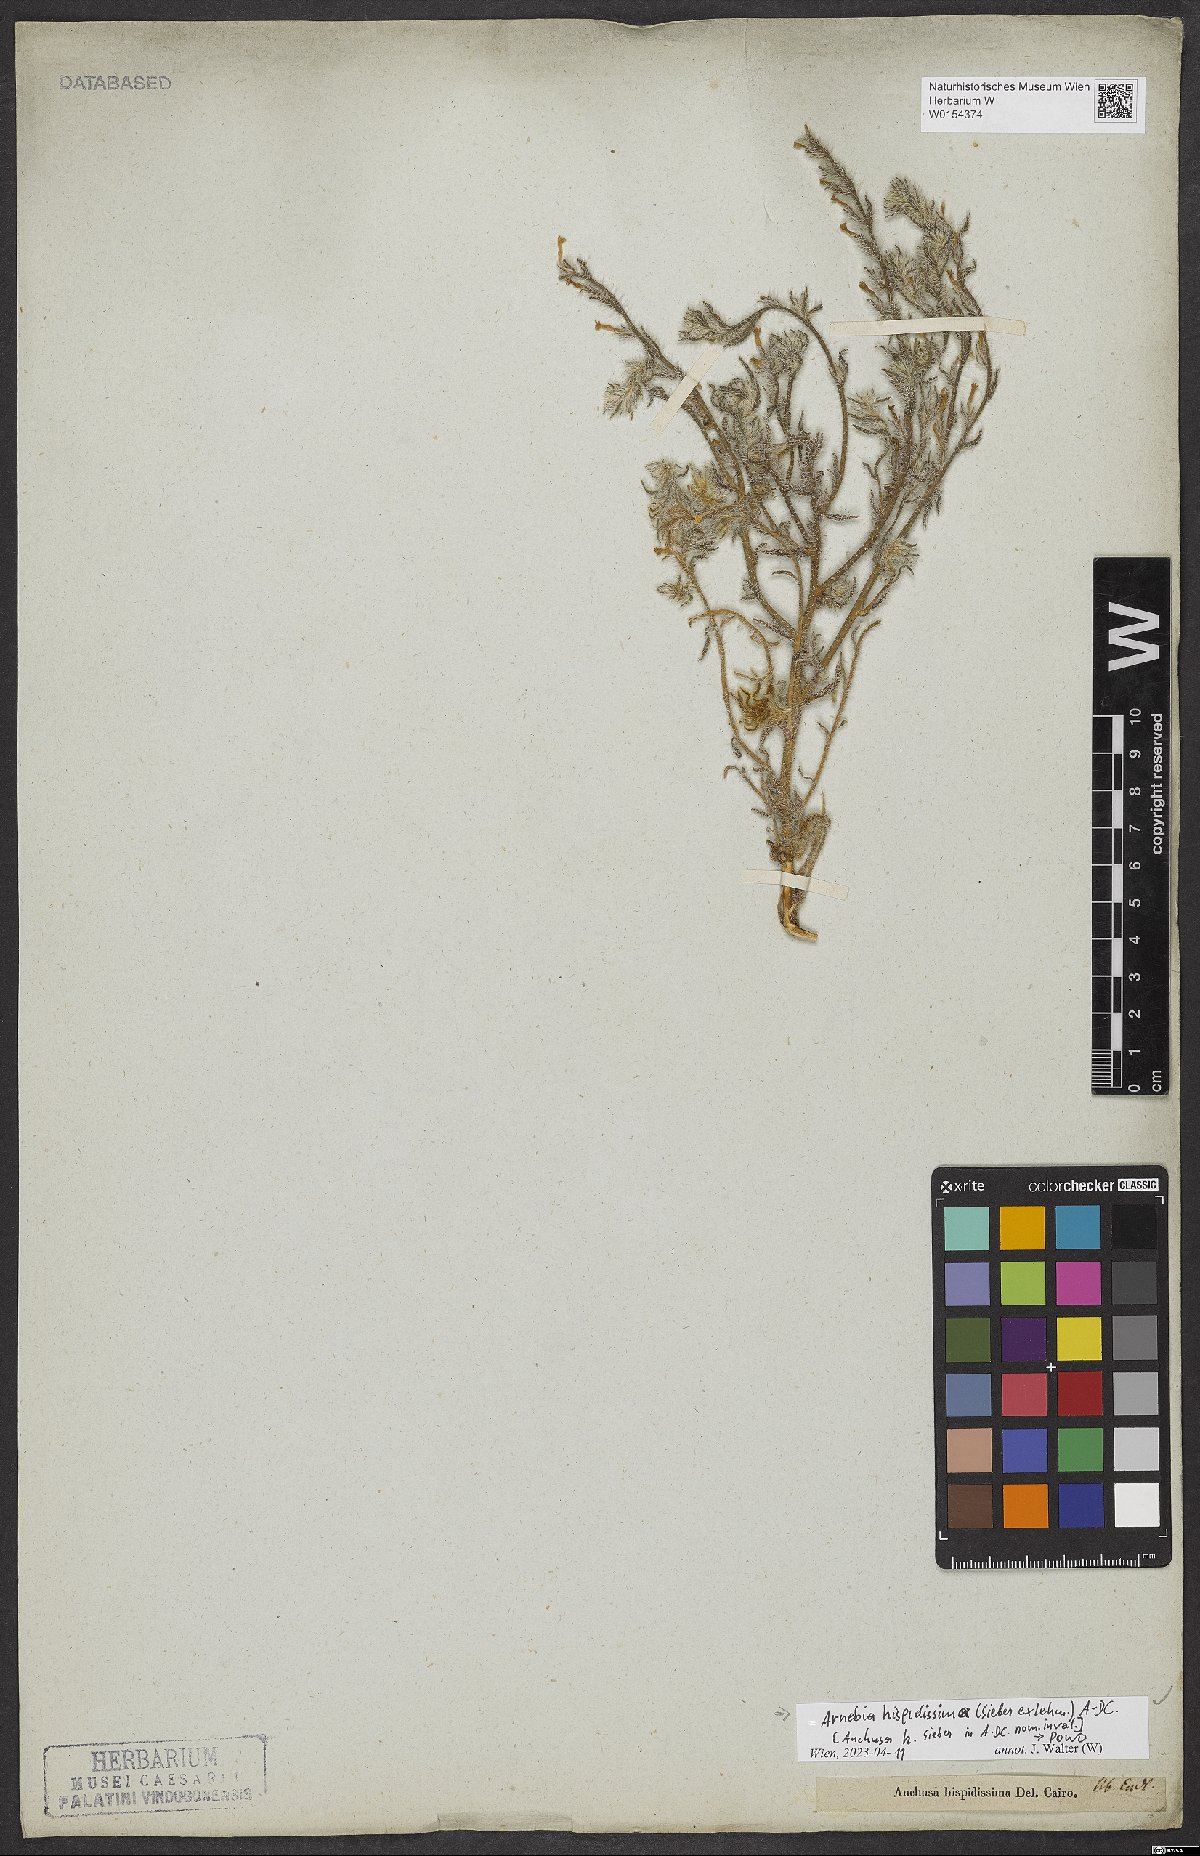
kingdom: Plantae
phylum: Tracheophyta
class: Magnoliopsida
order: Boraginales
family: Boraginaceae
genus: Arnebia
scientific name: Arnebia hispidissima
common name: Arabian-primrose
